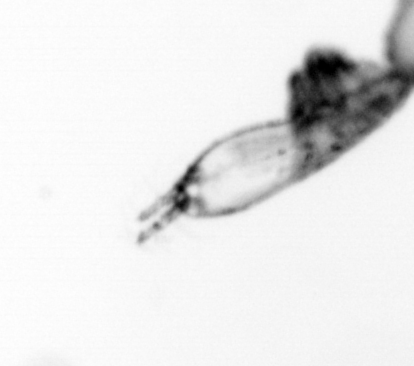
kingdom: Animalia
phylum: Arthropoda
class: Copepoda
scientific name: Copepoda
